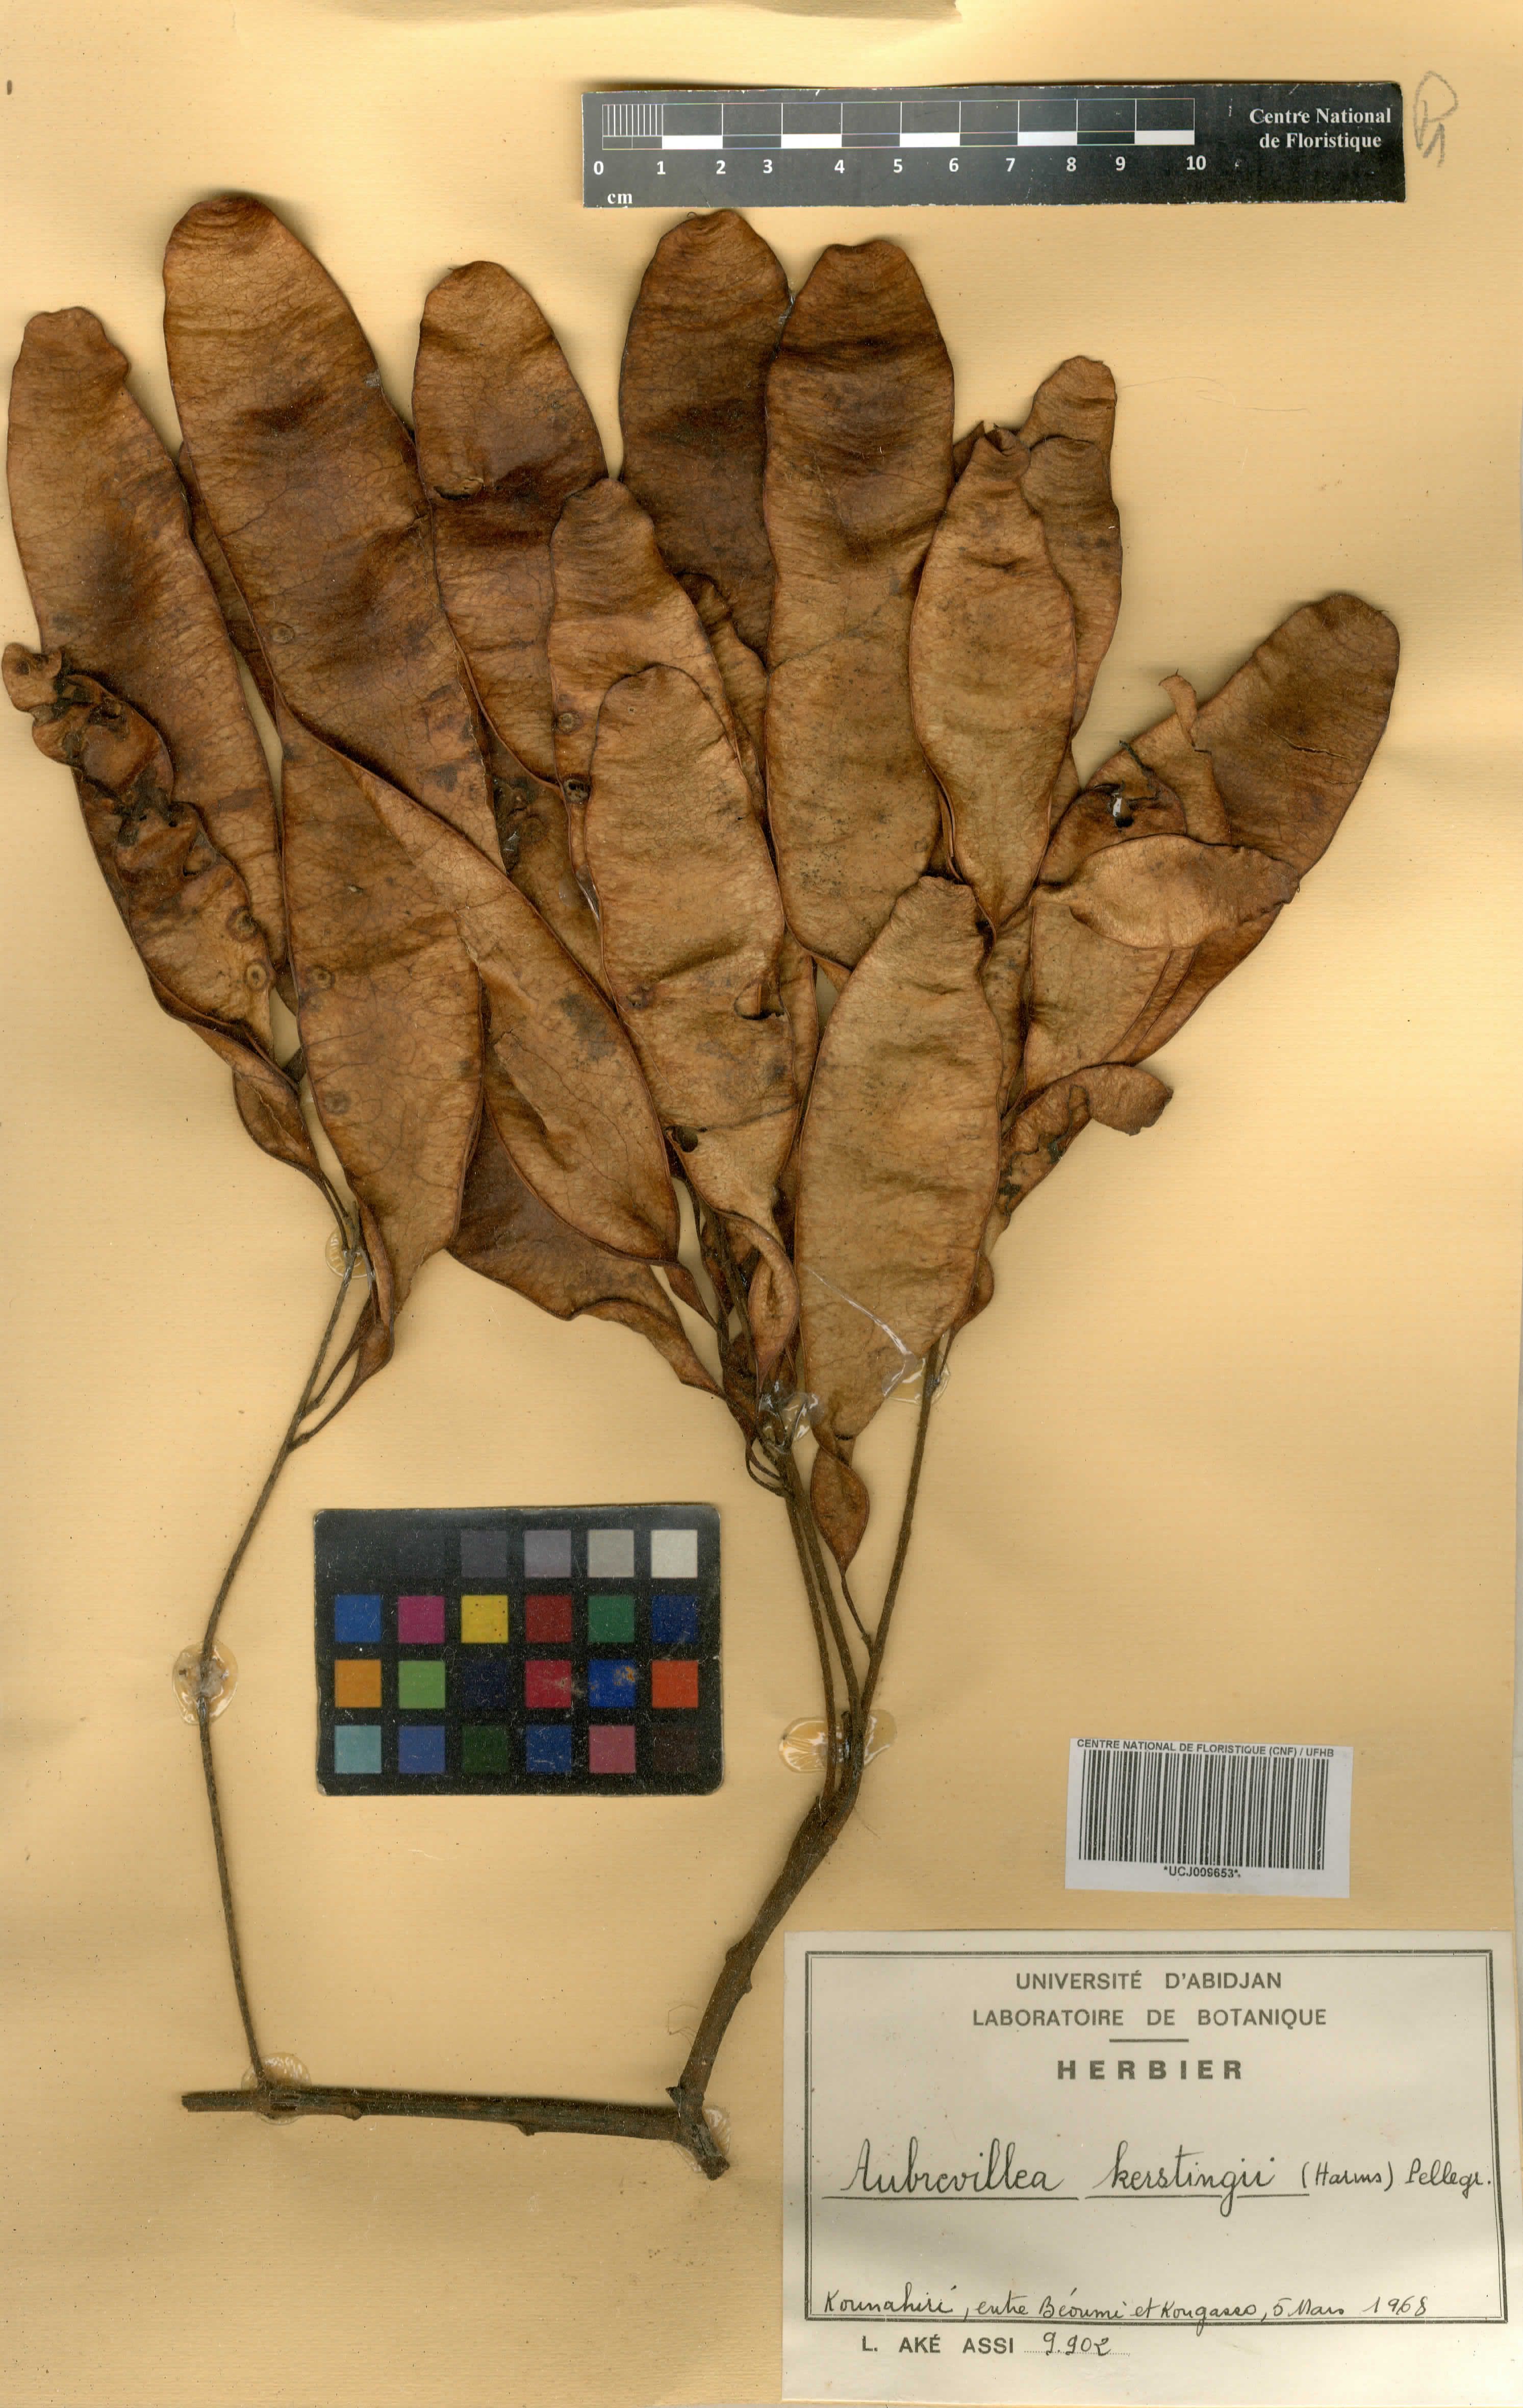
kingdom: Plantae
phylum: Tracheophyta
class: Magnoliopsida
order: Fabales
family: Fabaceae
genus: Aubrevillea
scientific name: Aubrevillea kerstingii
